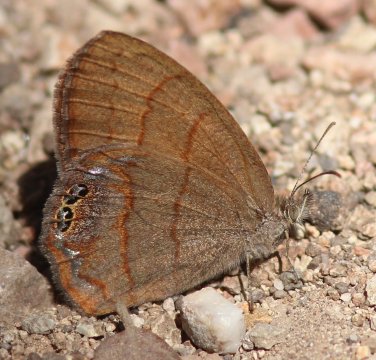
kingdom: Animalia
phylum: Arthropoda
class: Insecta
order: Lepidoptera
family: Nymphalidae
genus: Euptychia
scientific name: Euptychia pyracmon
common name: Nabokov's Satyr
